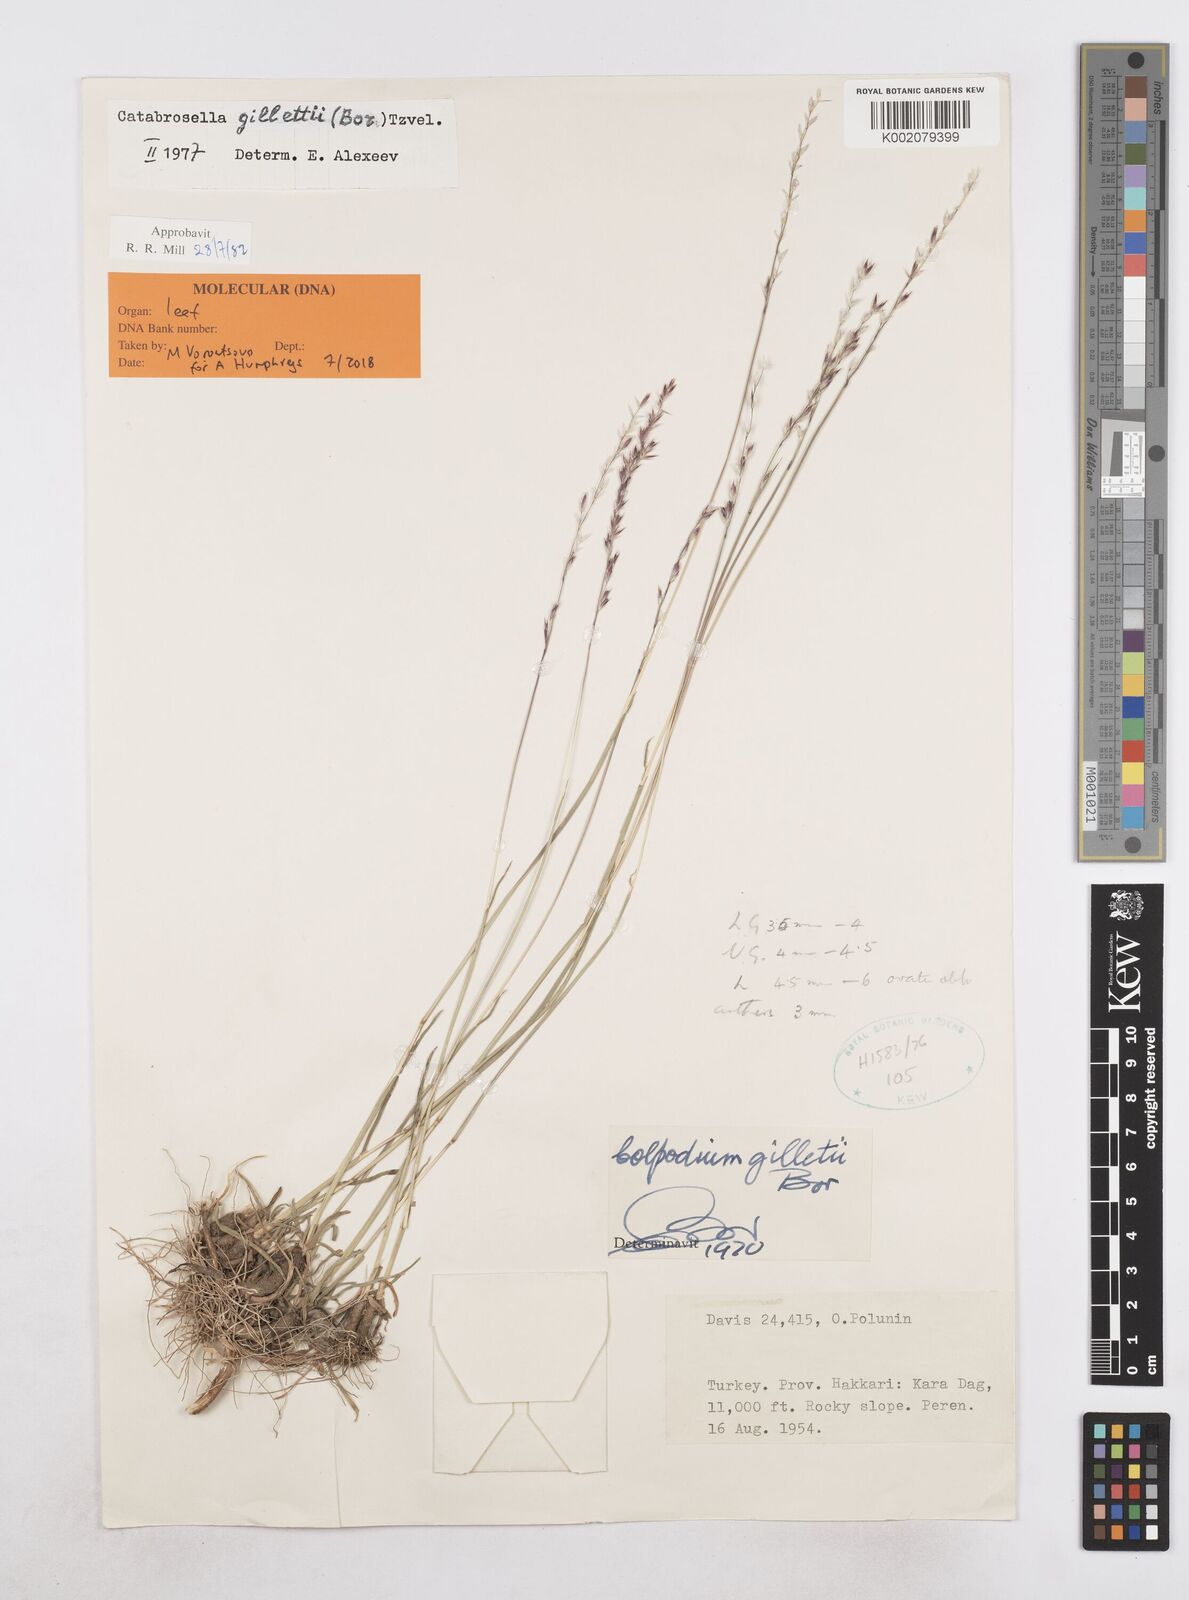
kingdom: Plantae
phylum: Tracheophyta
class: Liliopsida
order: Poales
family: Poaceae
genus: Catabrosella
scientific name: Catabrosella gillettii
